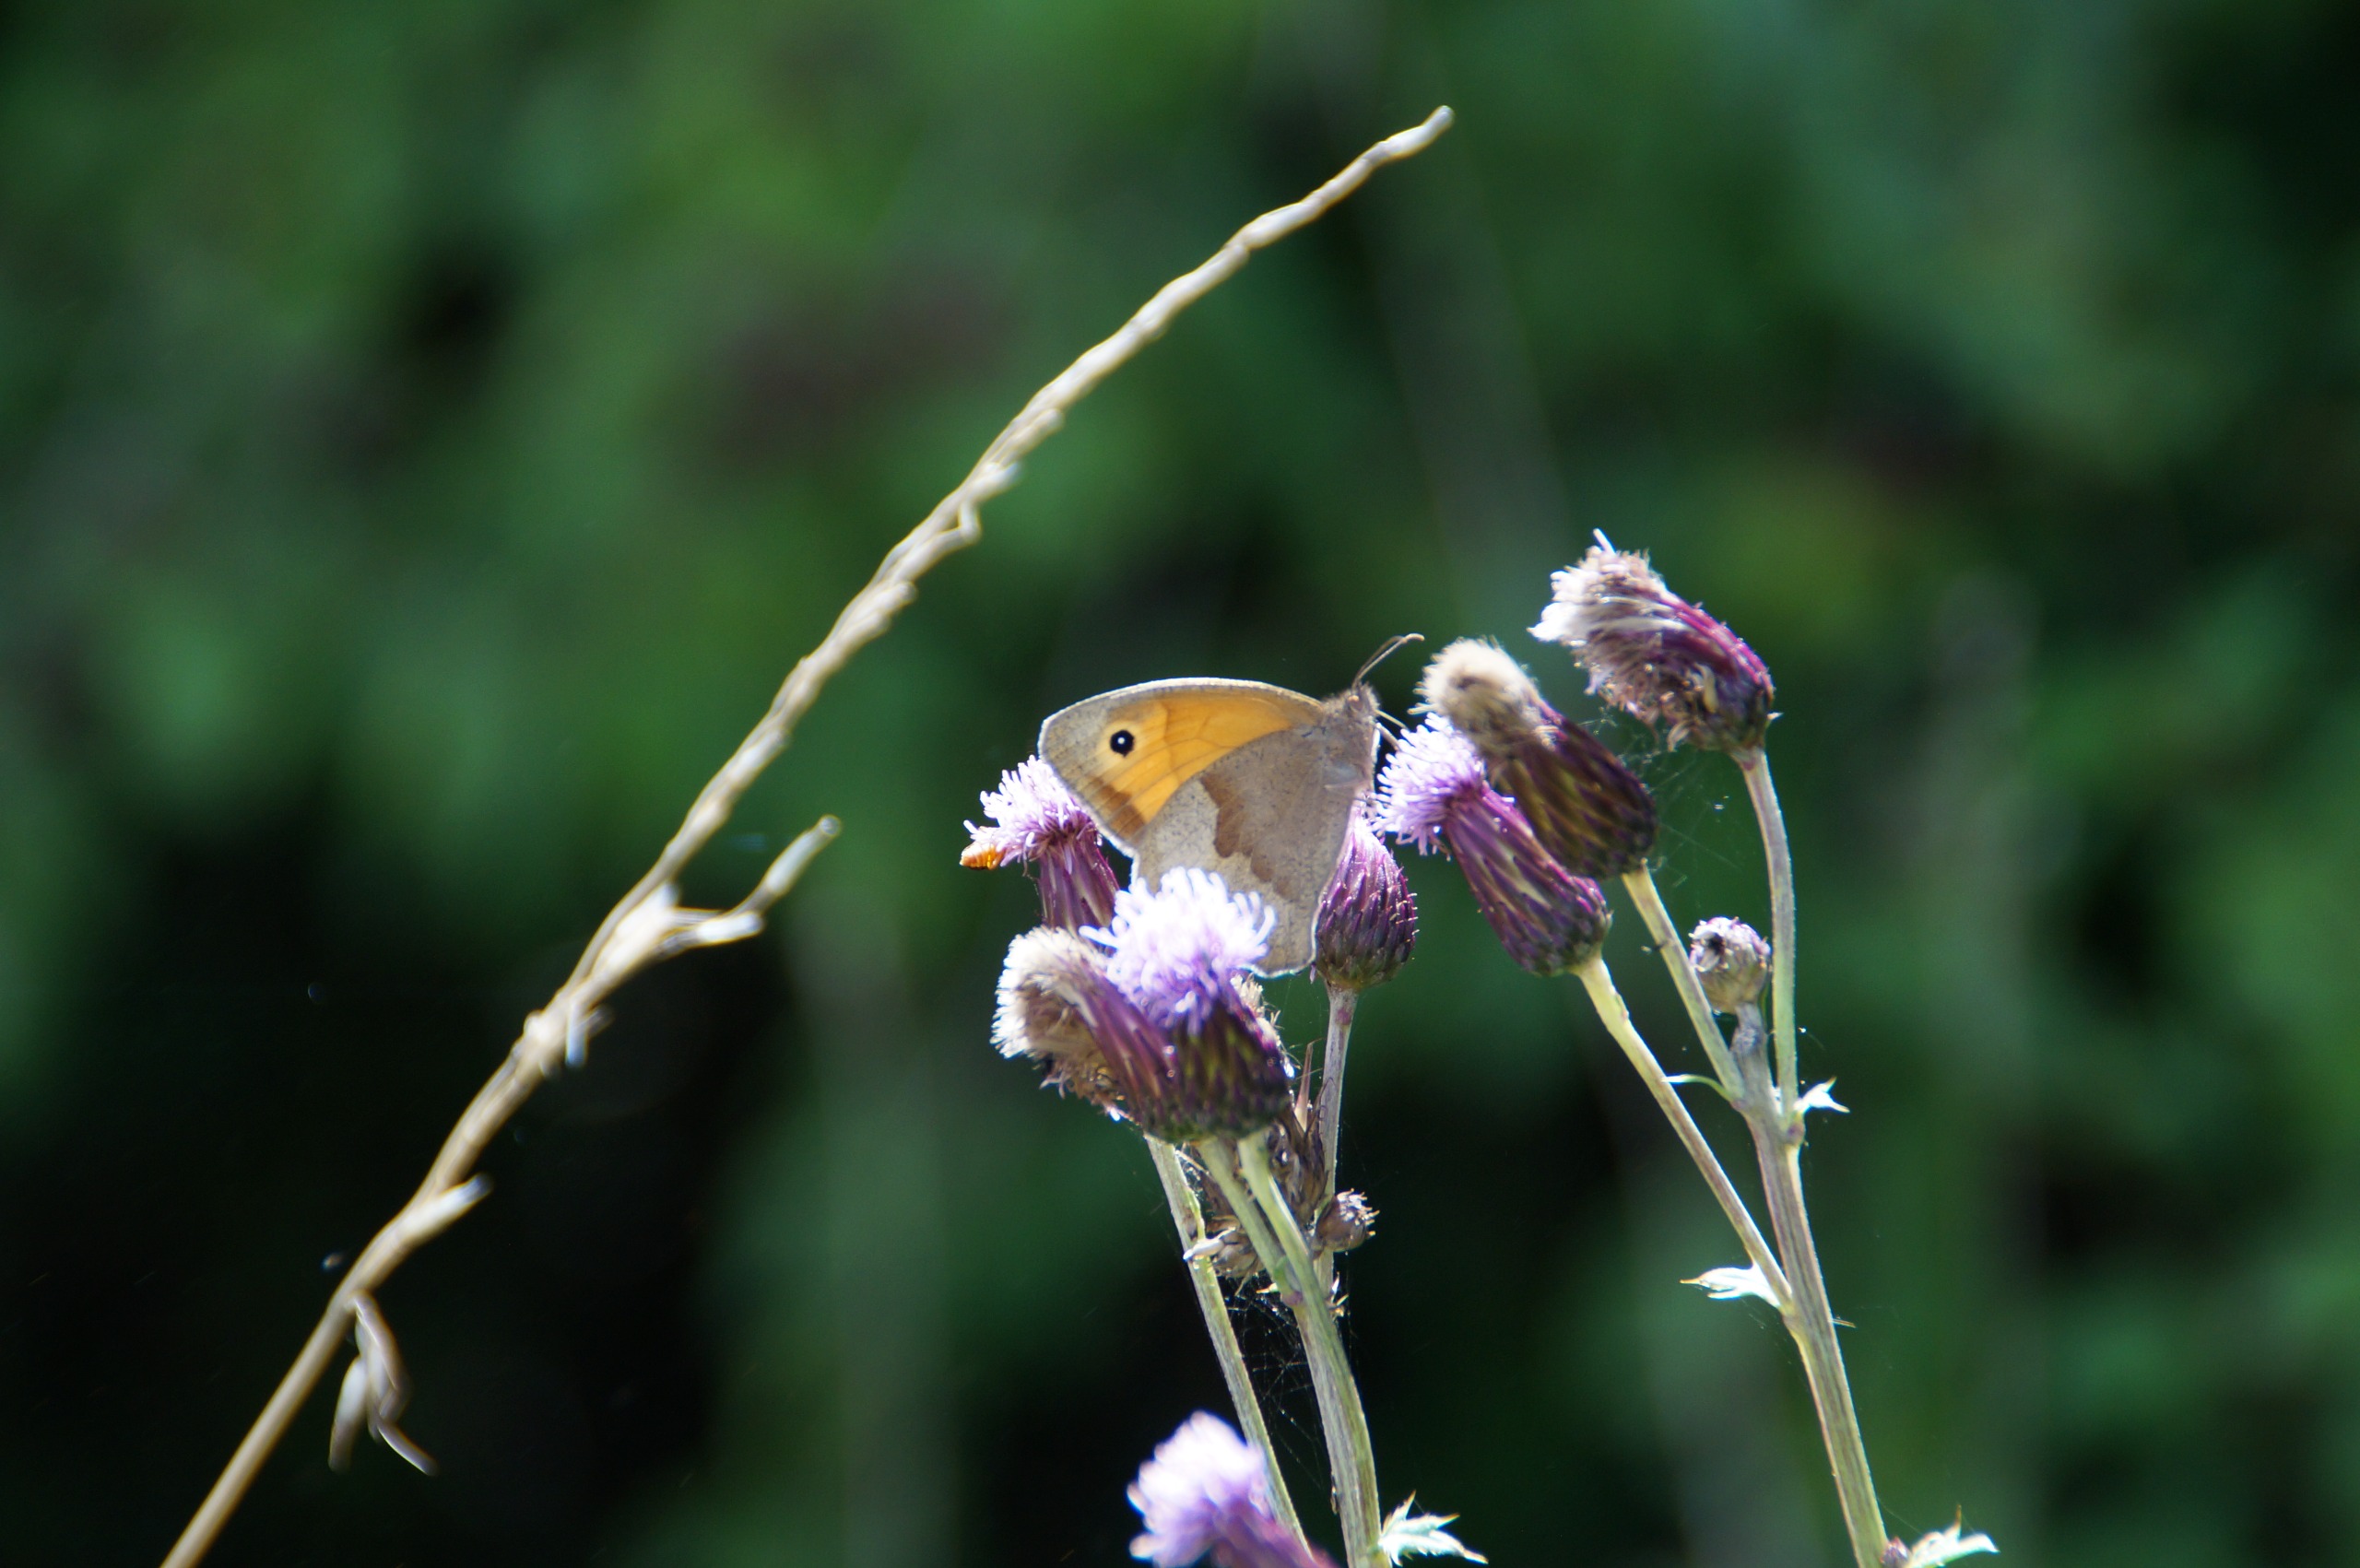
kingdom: Animalia
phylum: Arthropoda
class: Insecta
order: Lepidoptera
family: Nymphalidae
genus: Maniola
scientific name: Maniola jurtina
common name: Græsrandøje
